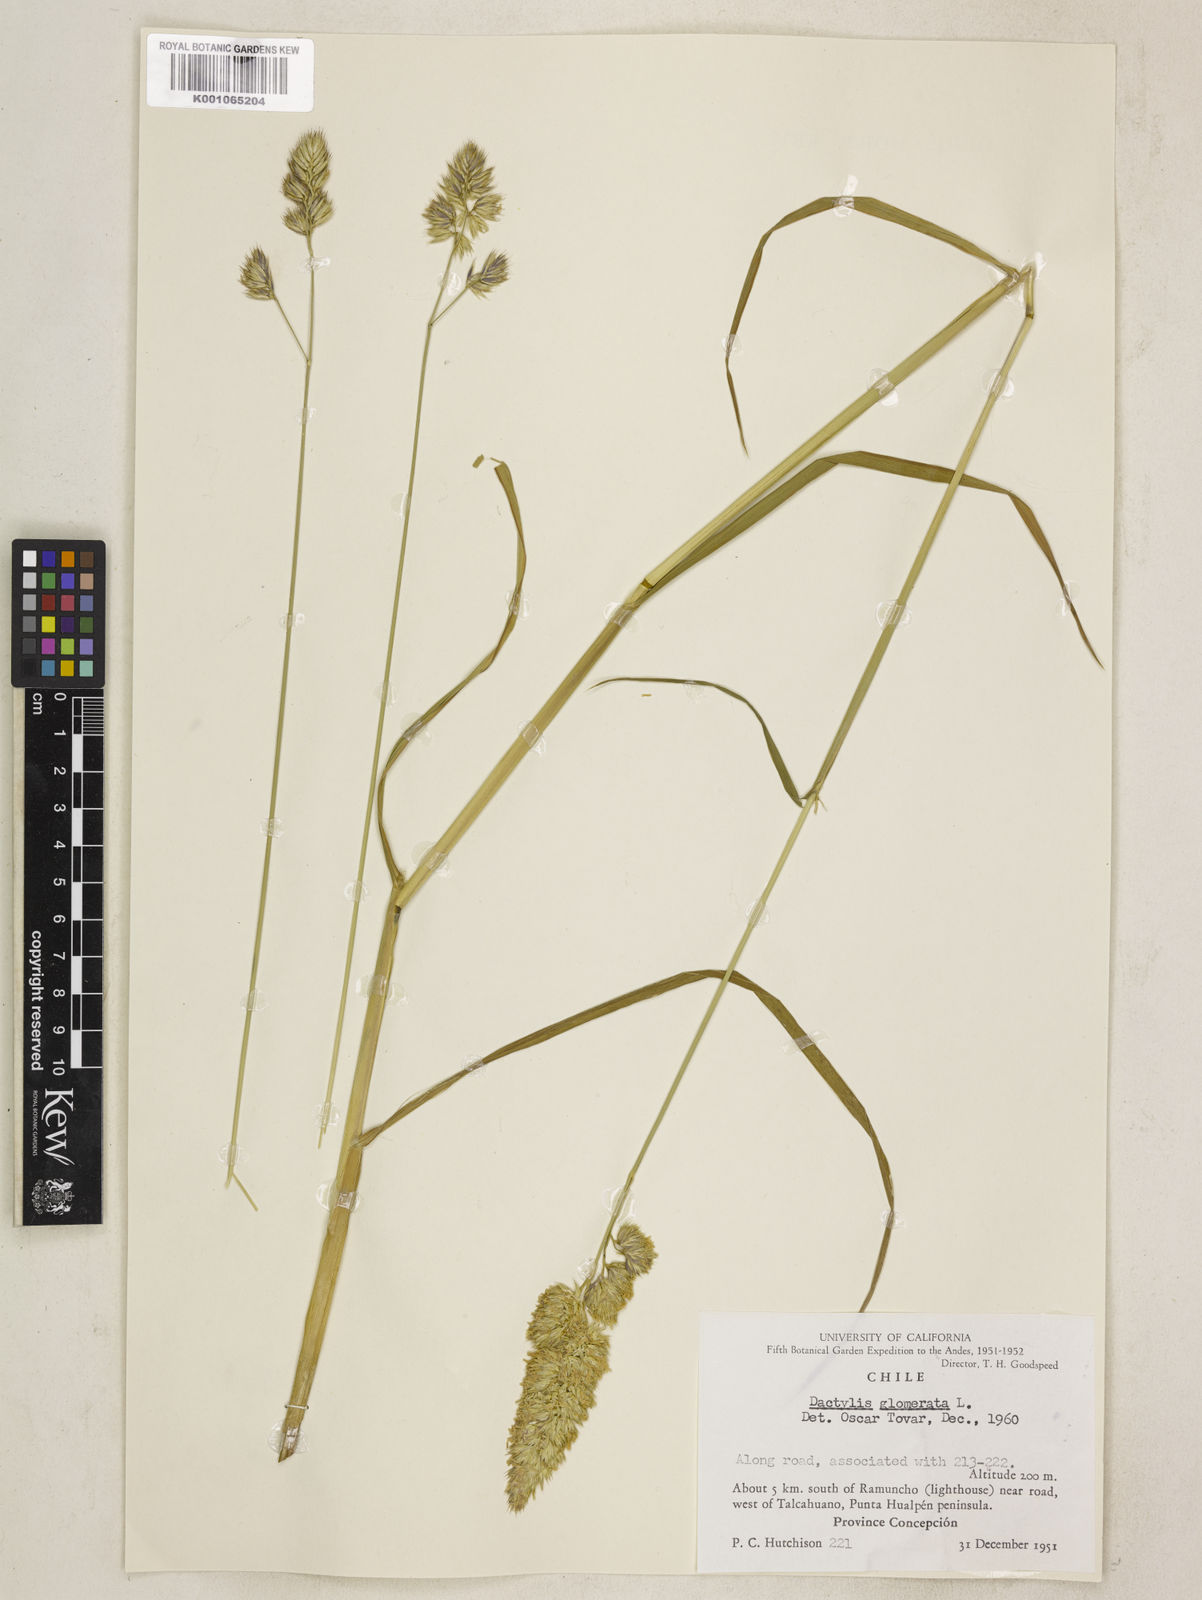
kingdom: Plantae
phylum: Tracheophyta
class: Liliopsida
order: Poales
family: Poaceae
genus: Dactylis
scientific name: Dactylis glomerata
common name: Orchardgrass
